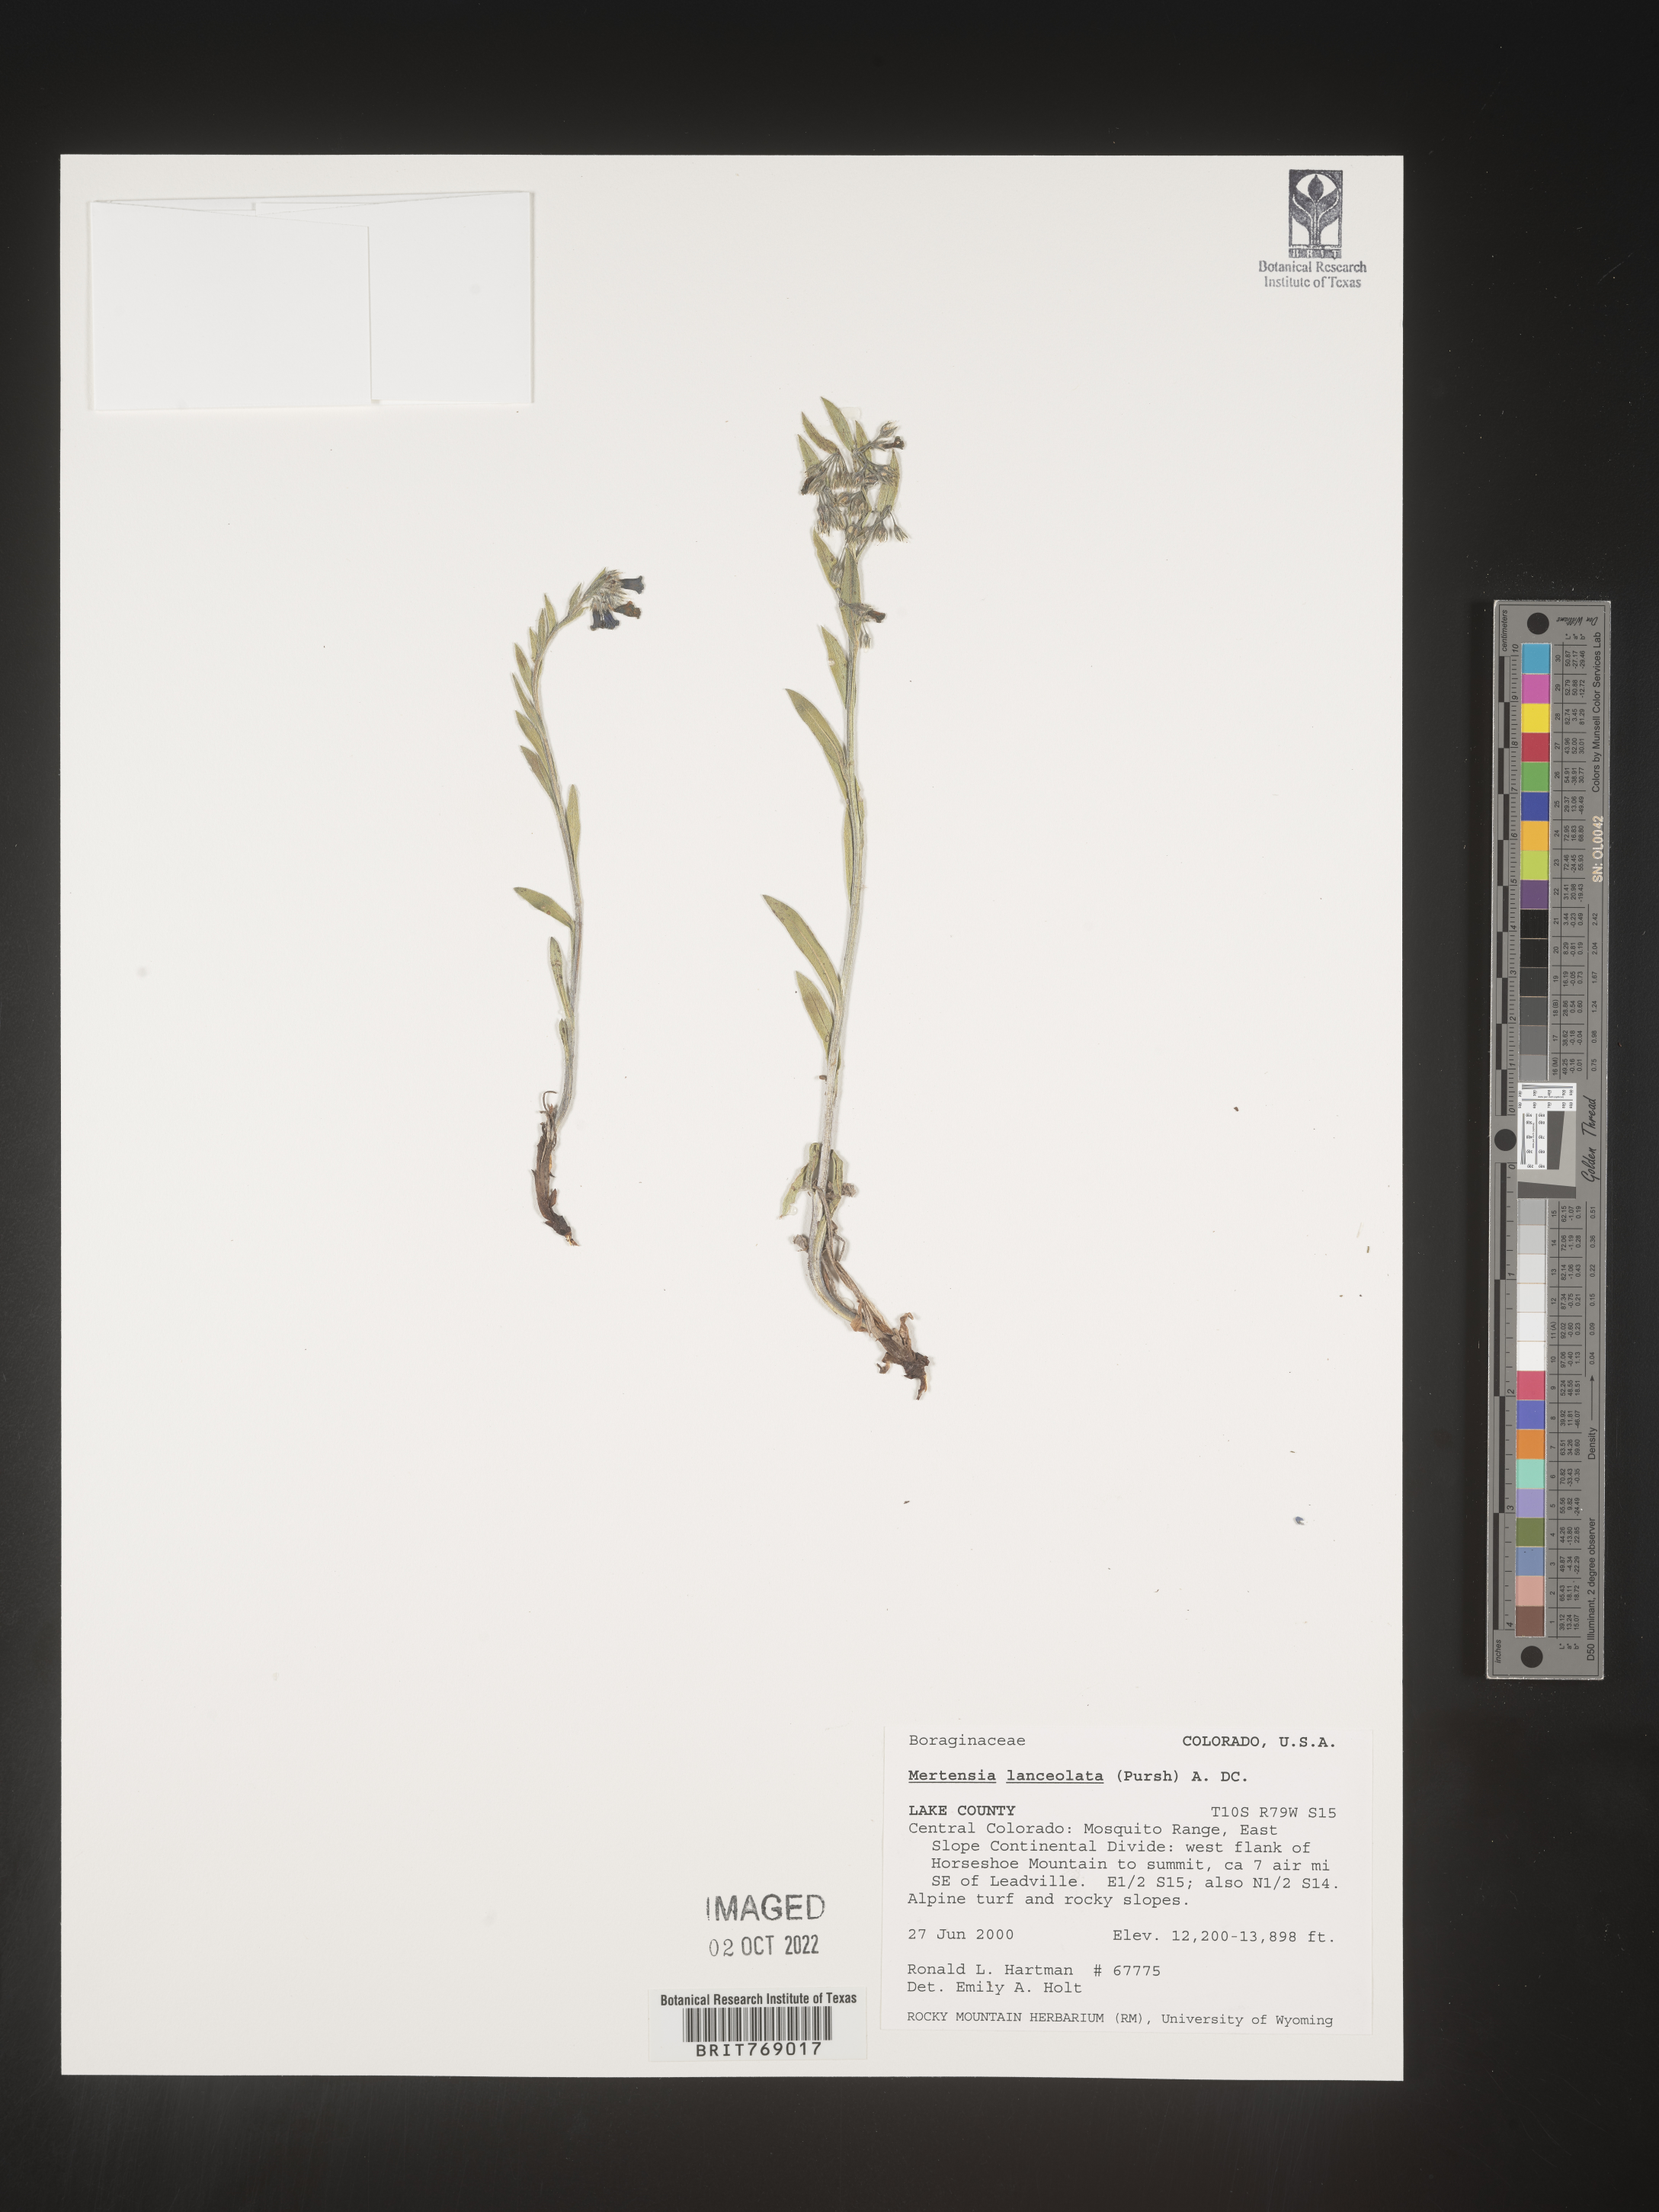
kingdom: Plantae
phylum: Tracheophyta
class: Magnoliopsida
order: Boraginales
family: Boraginaceae
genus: Mertensia
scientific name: Mertensia
